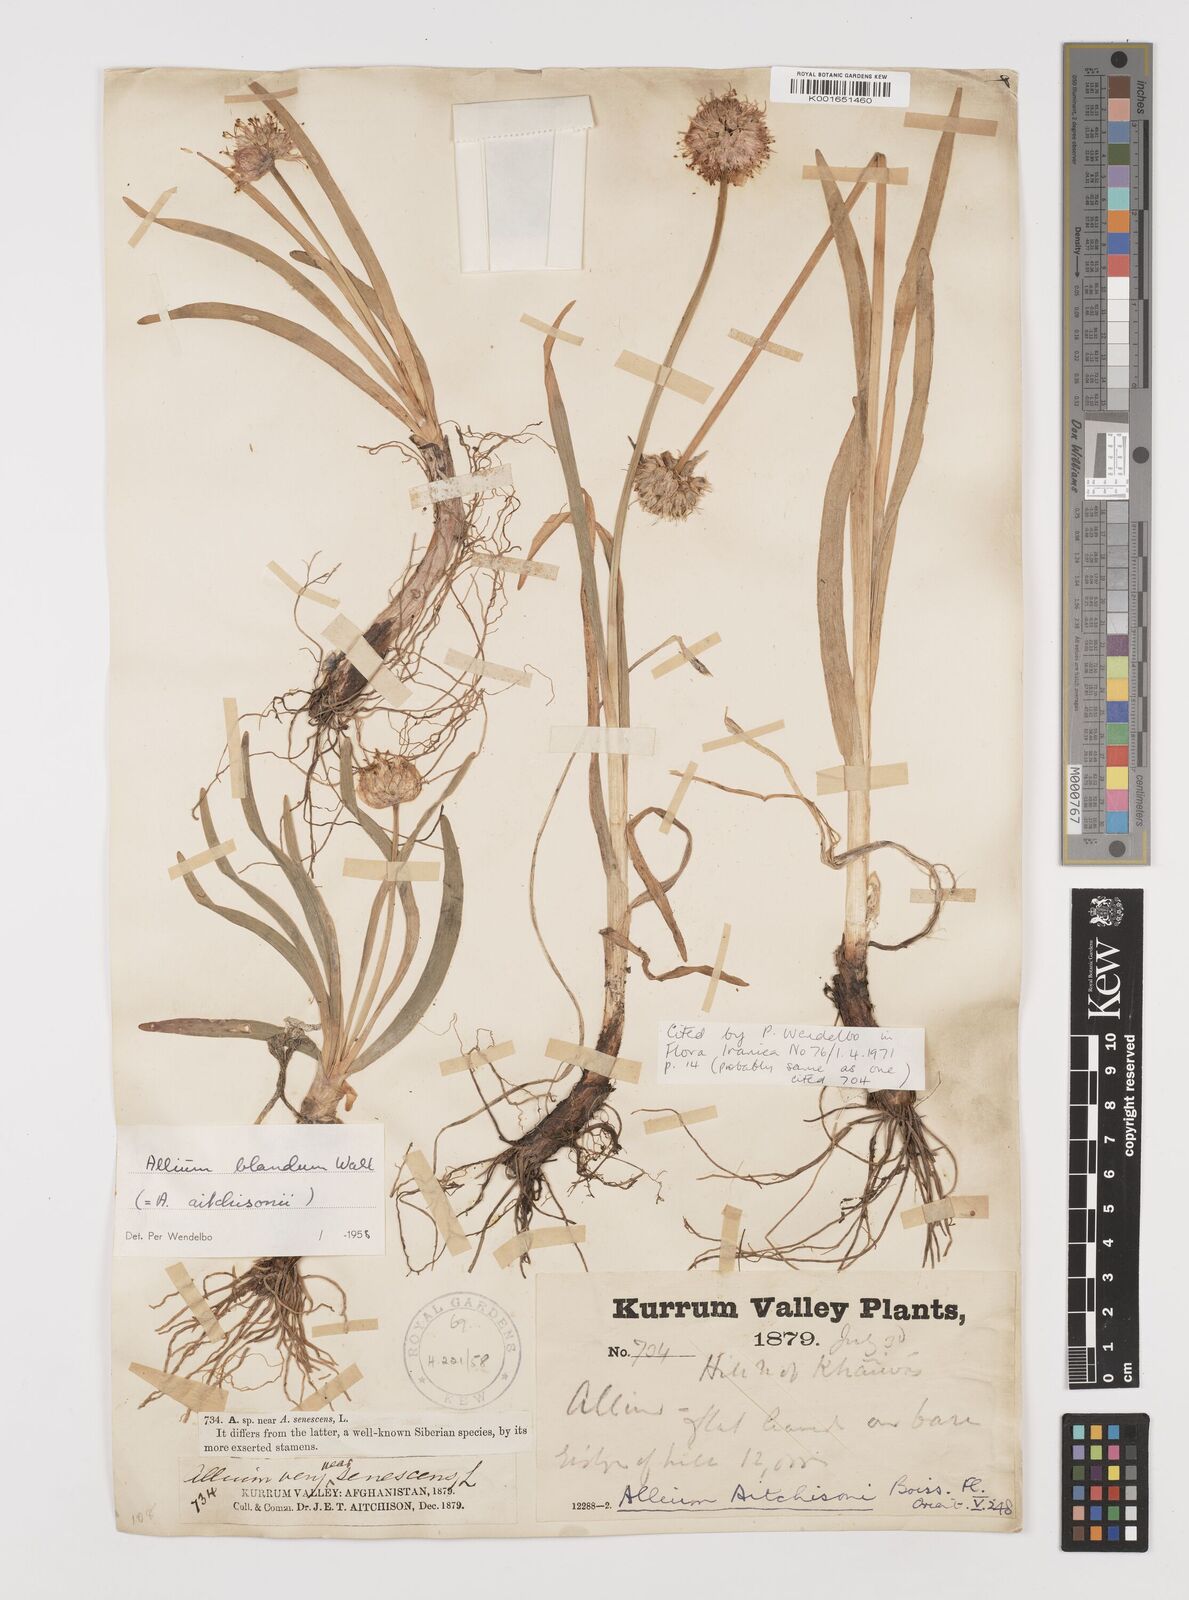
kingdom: Plantae
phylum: Tracheophyta
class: Liliopsida
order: Asparagales
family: Amaryllidaceae
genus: Allium
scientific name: Allium carolinianum
